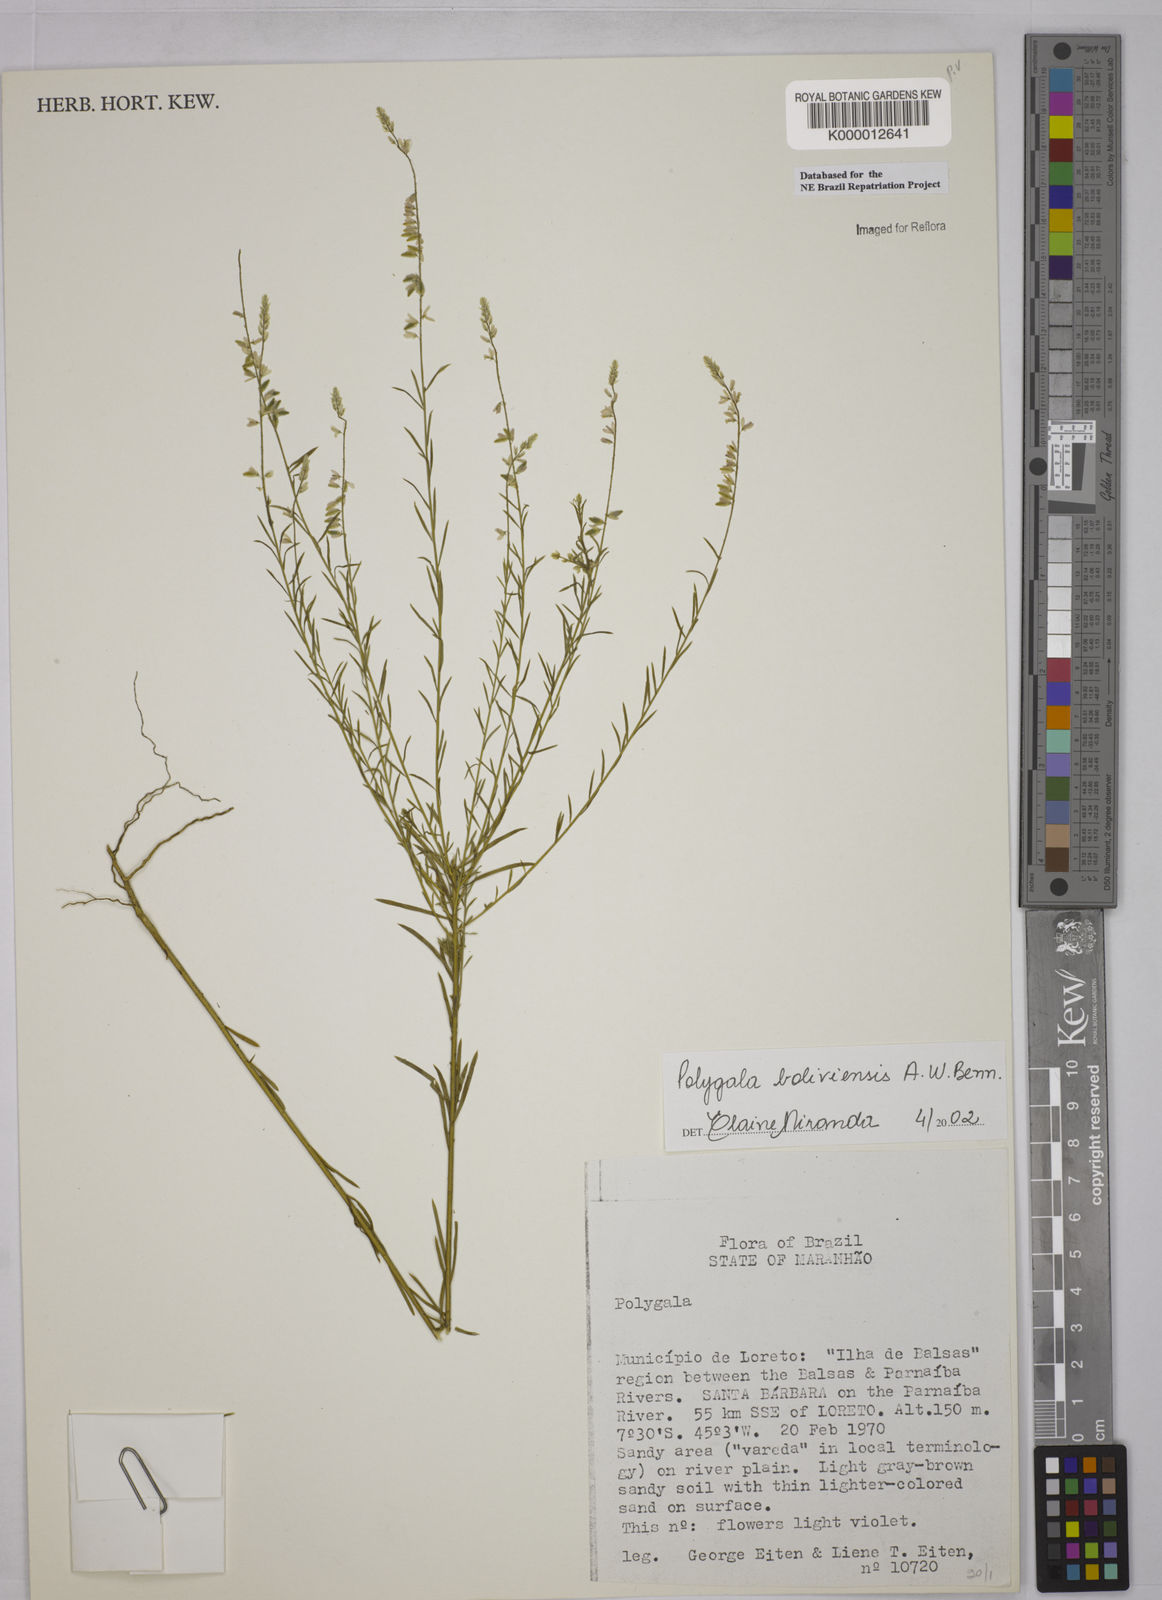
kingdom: Plantae
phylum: Tracheophyta
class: Magnoliopsida
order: Fabales
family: Polygalaceae
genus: Polygala
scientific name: Polygala boliviensis
